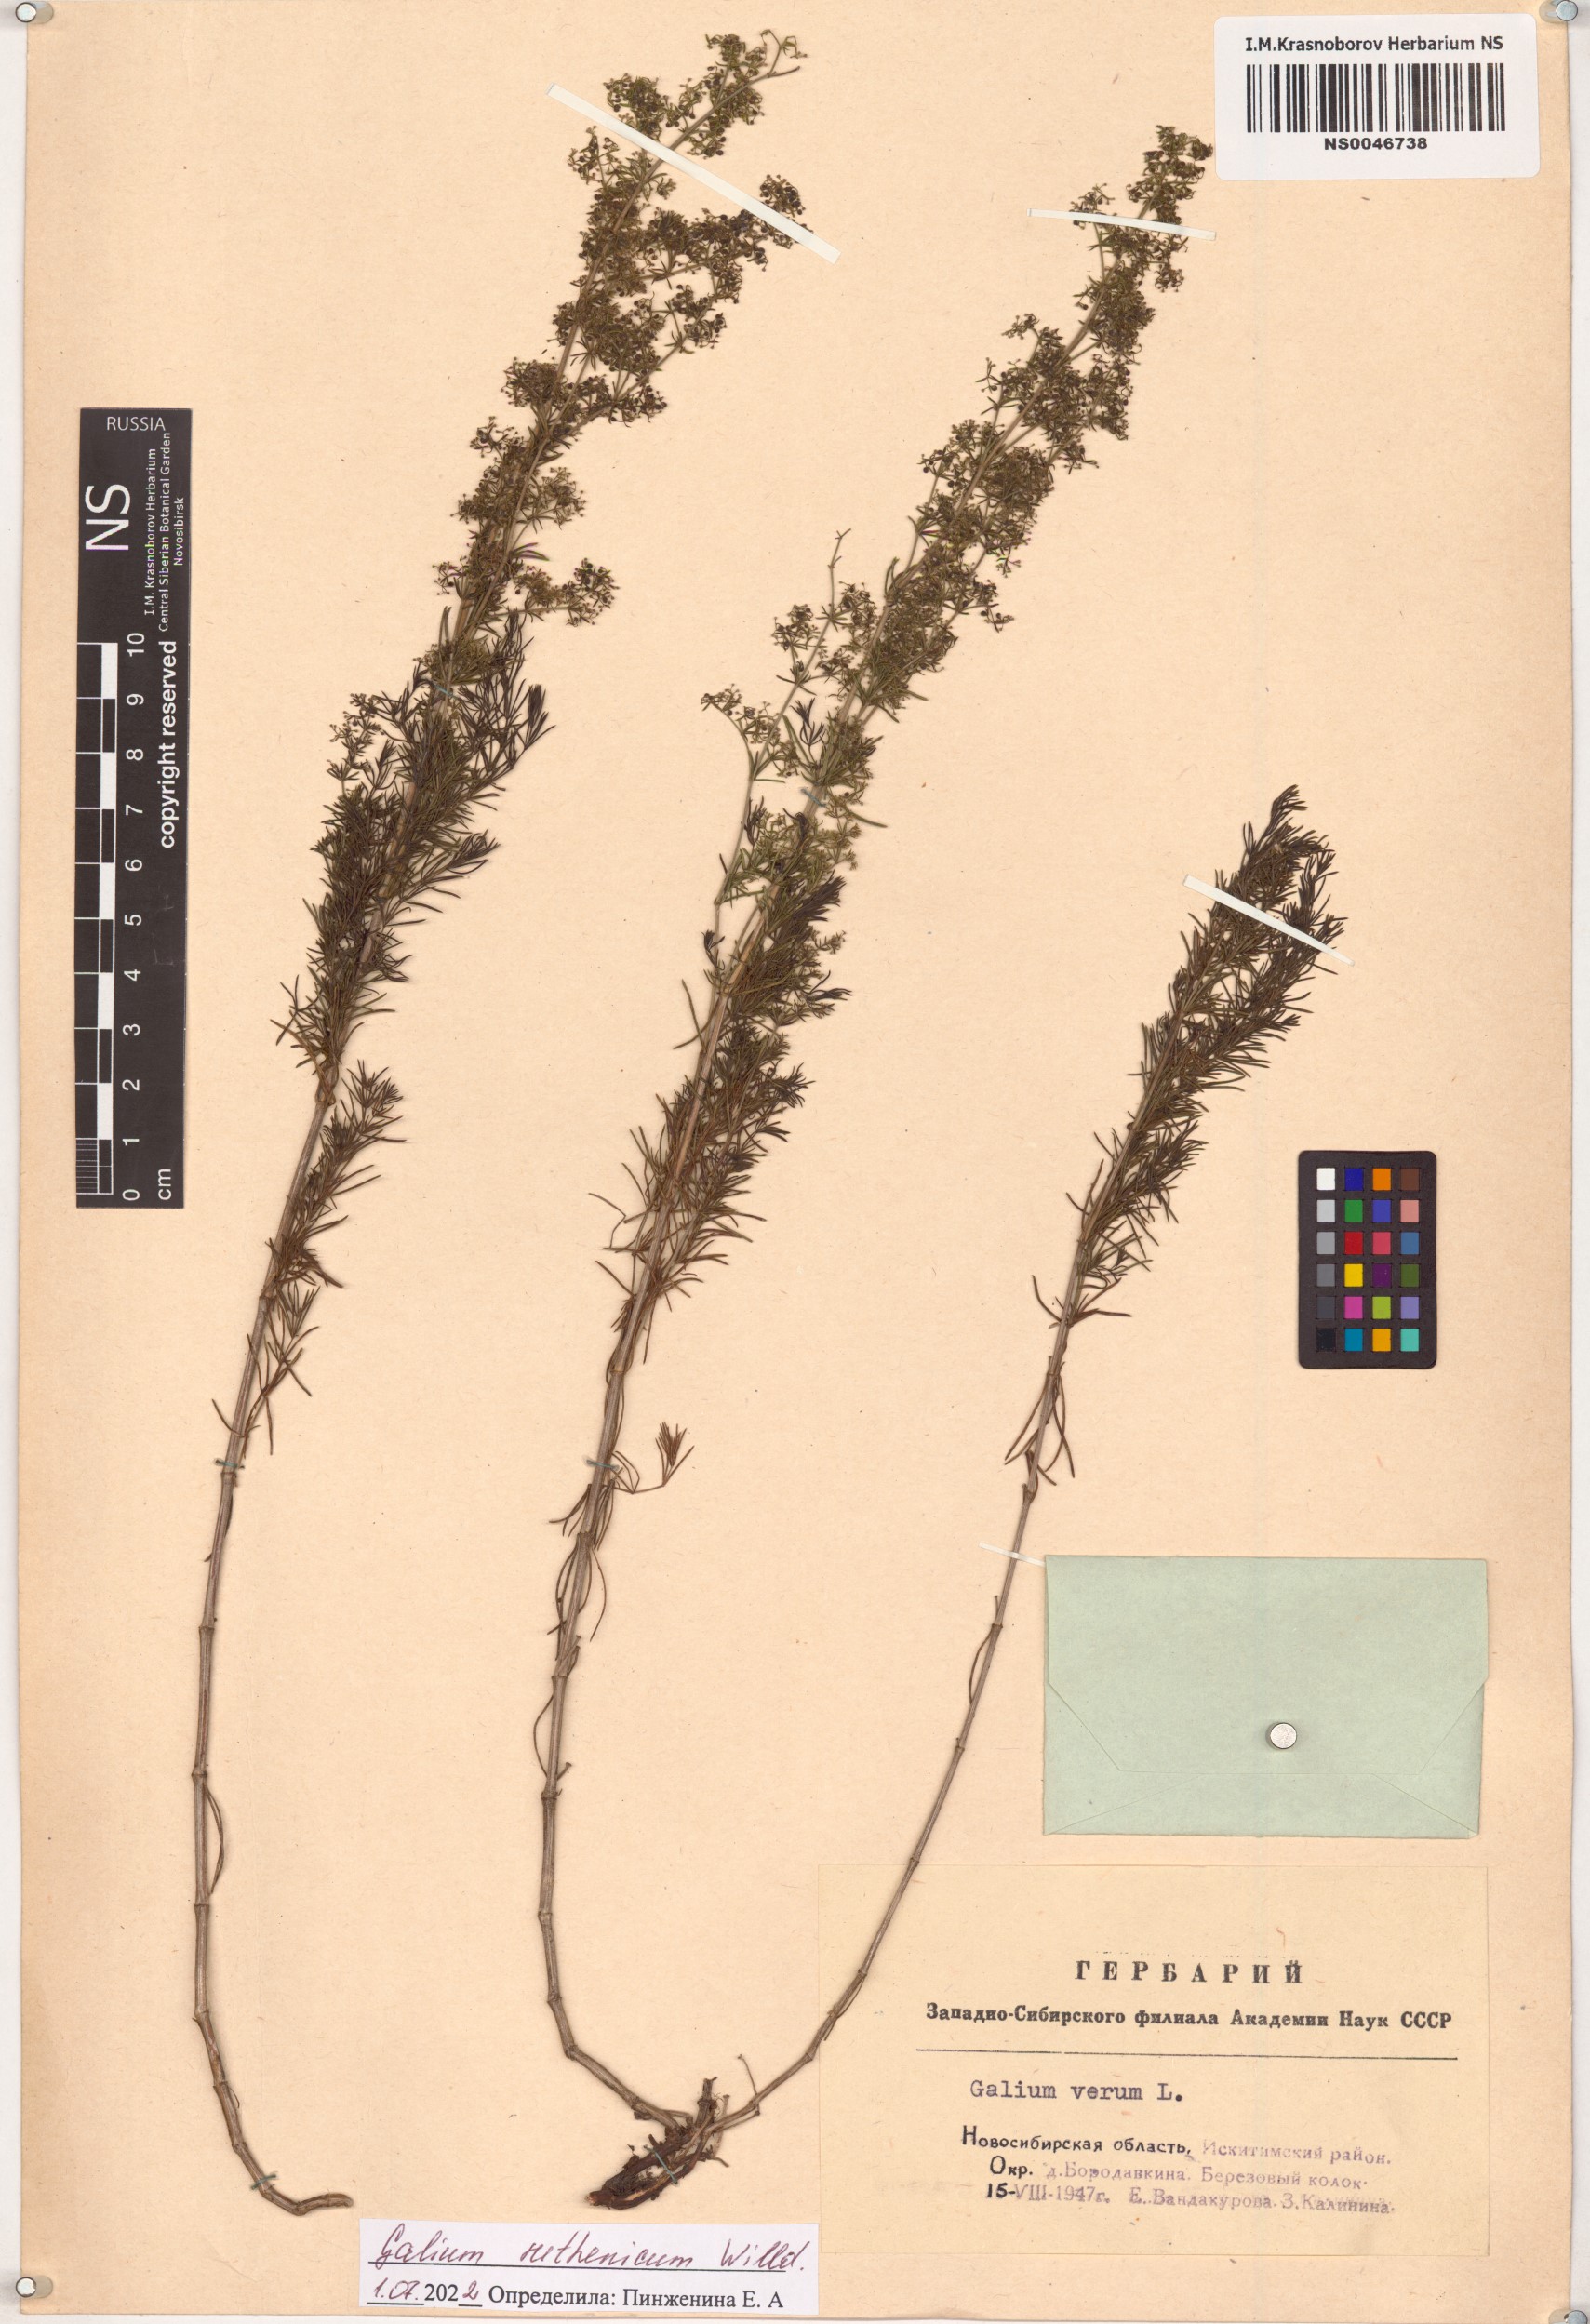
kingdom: Plantae
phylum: Tracheophyta
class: Magnoliopsida
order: Gentianales
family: Rubiaceae
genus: Galium
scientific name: Galium verum
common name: Lady's bedstraw
